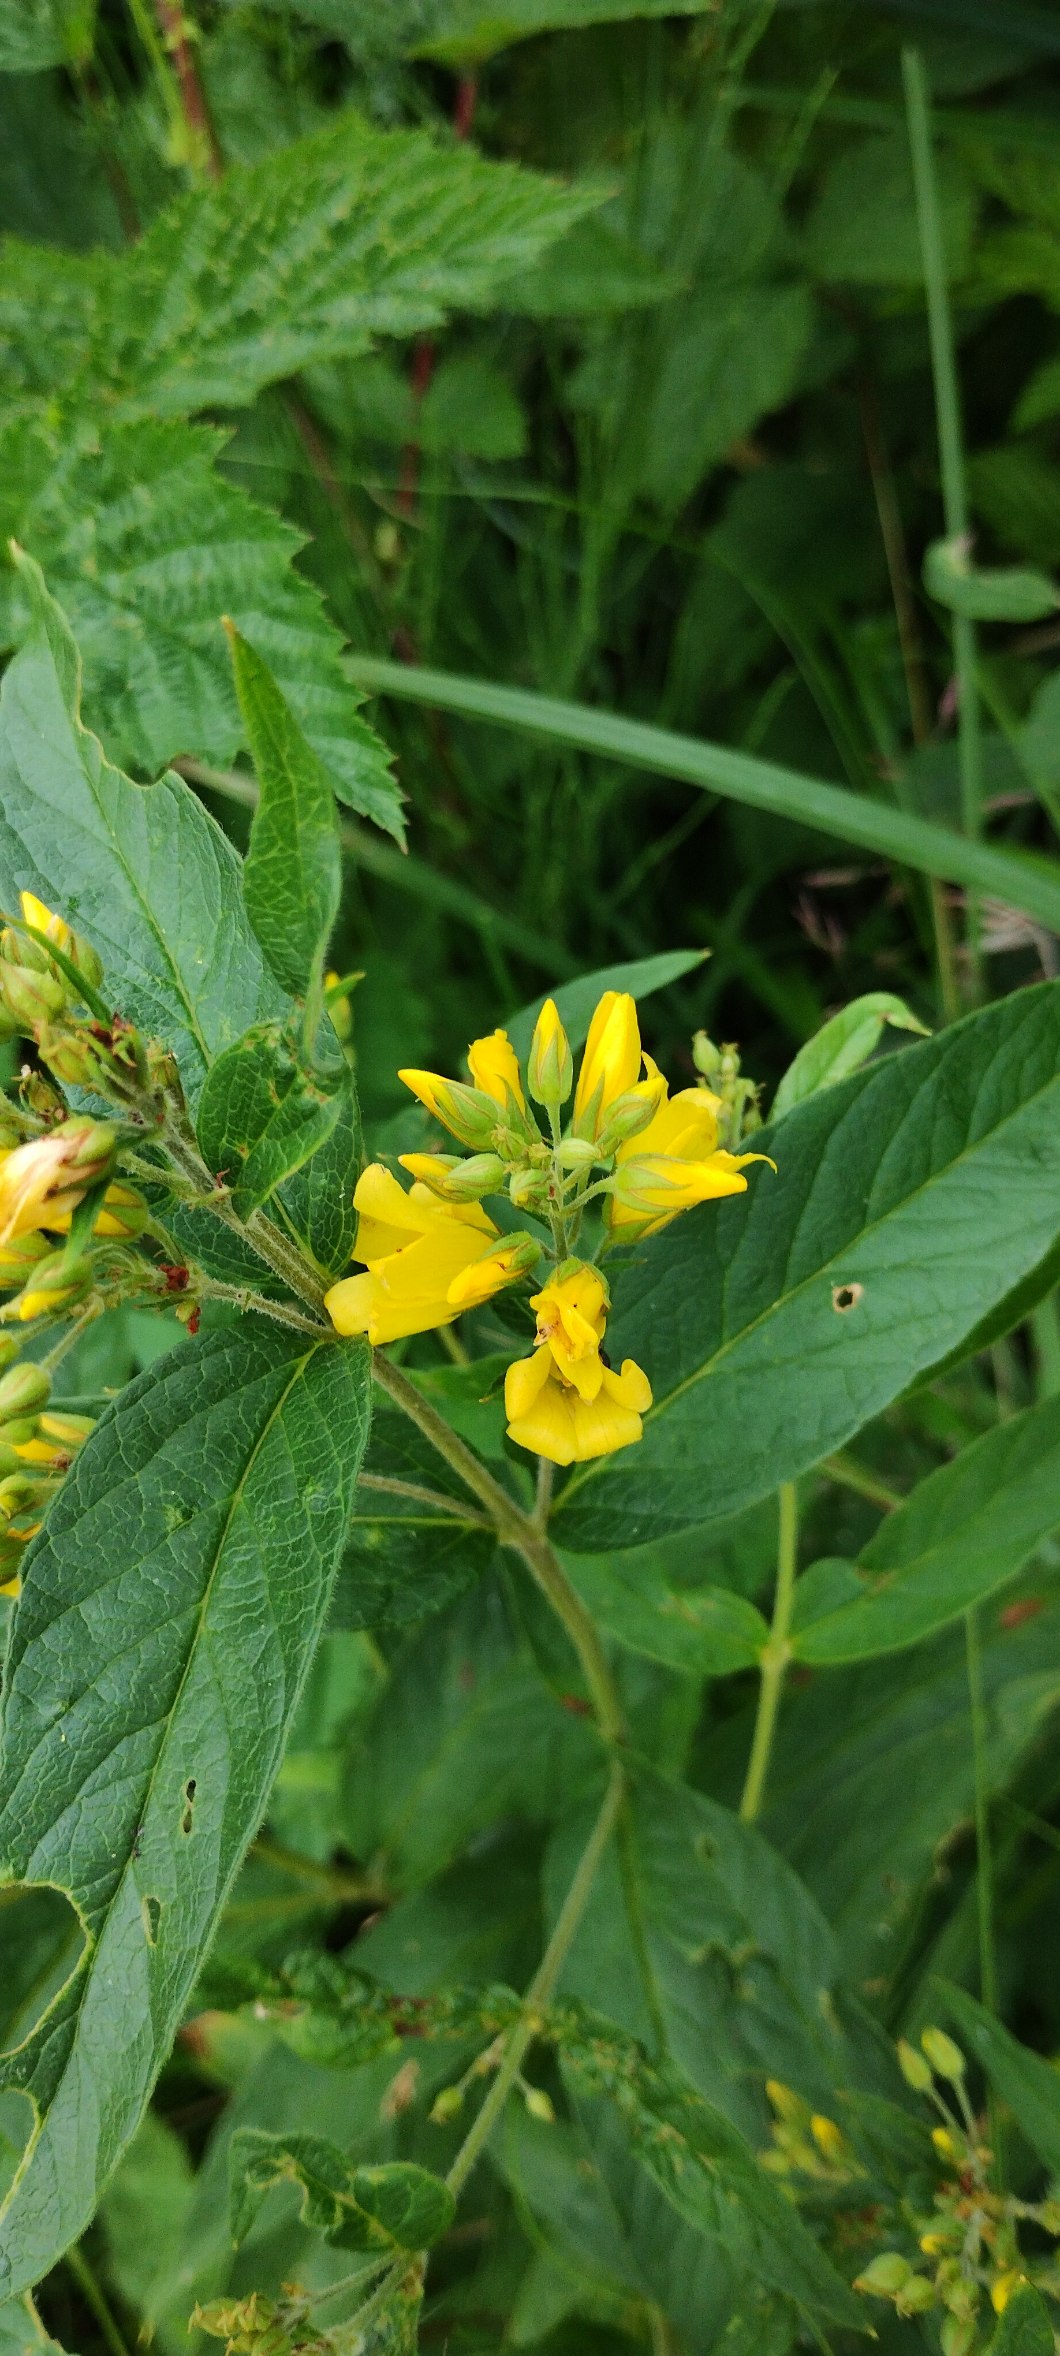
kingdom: Plantae
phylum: Tracheophyta
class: Magnoliopsida
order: Ericales
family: Primulaceae
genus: Lysimachia
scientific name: Lysimachia vulgaris
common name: Almindelig fredløs
